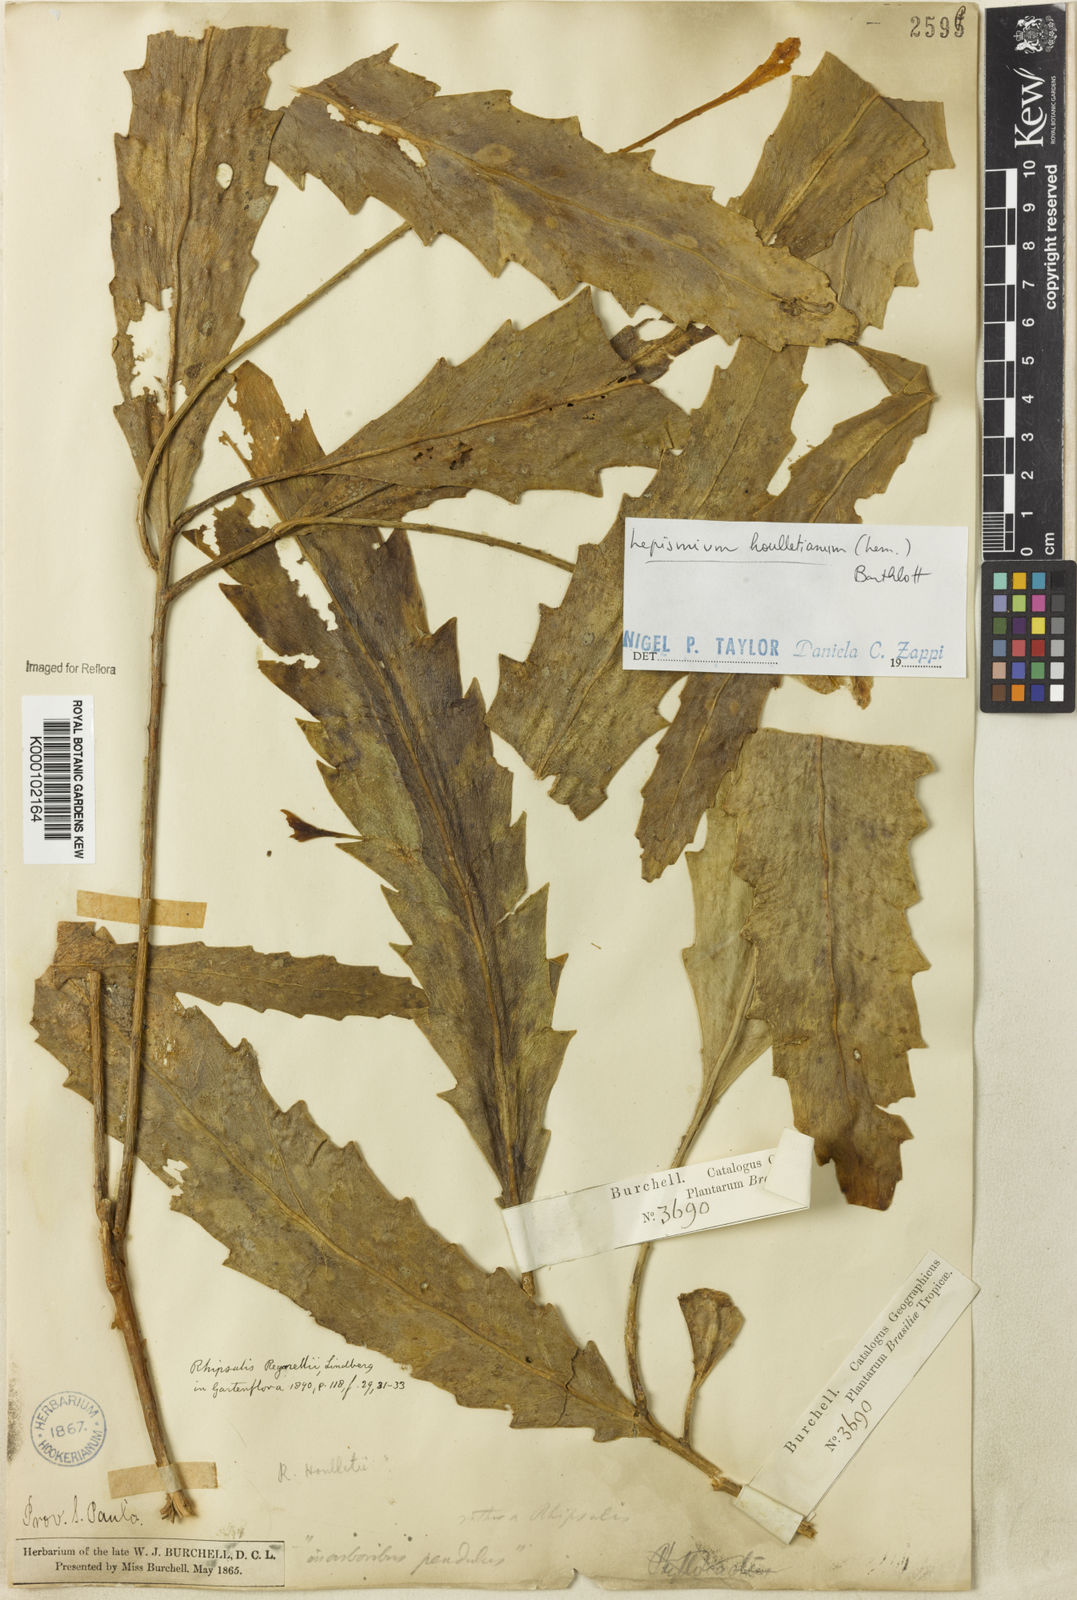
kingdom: Plantae
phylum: Tracheophyta
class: Magnoliopsida
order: Caryophyllales
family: Cactaceae
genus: Lepismium
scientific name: Lepismium houlletianum
